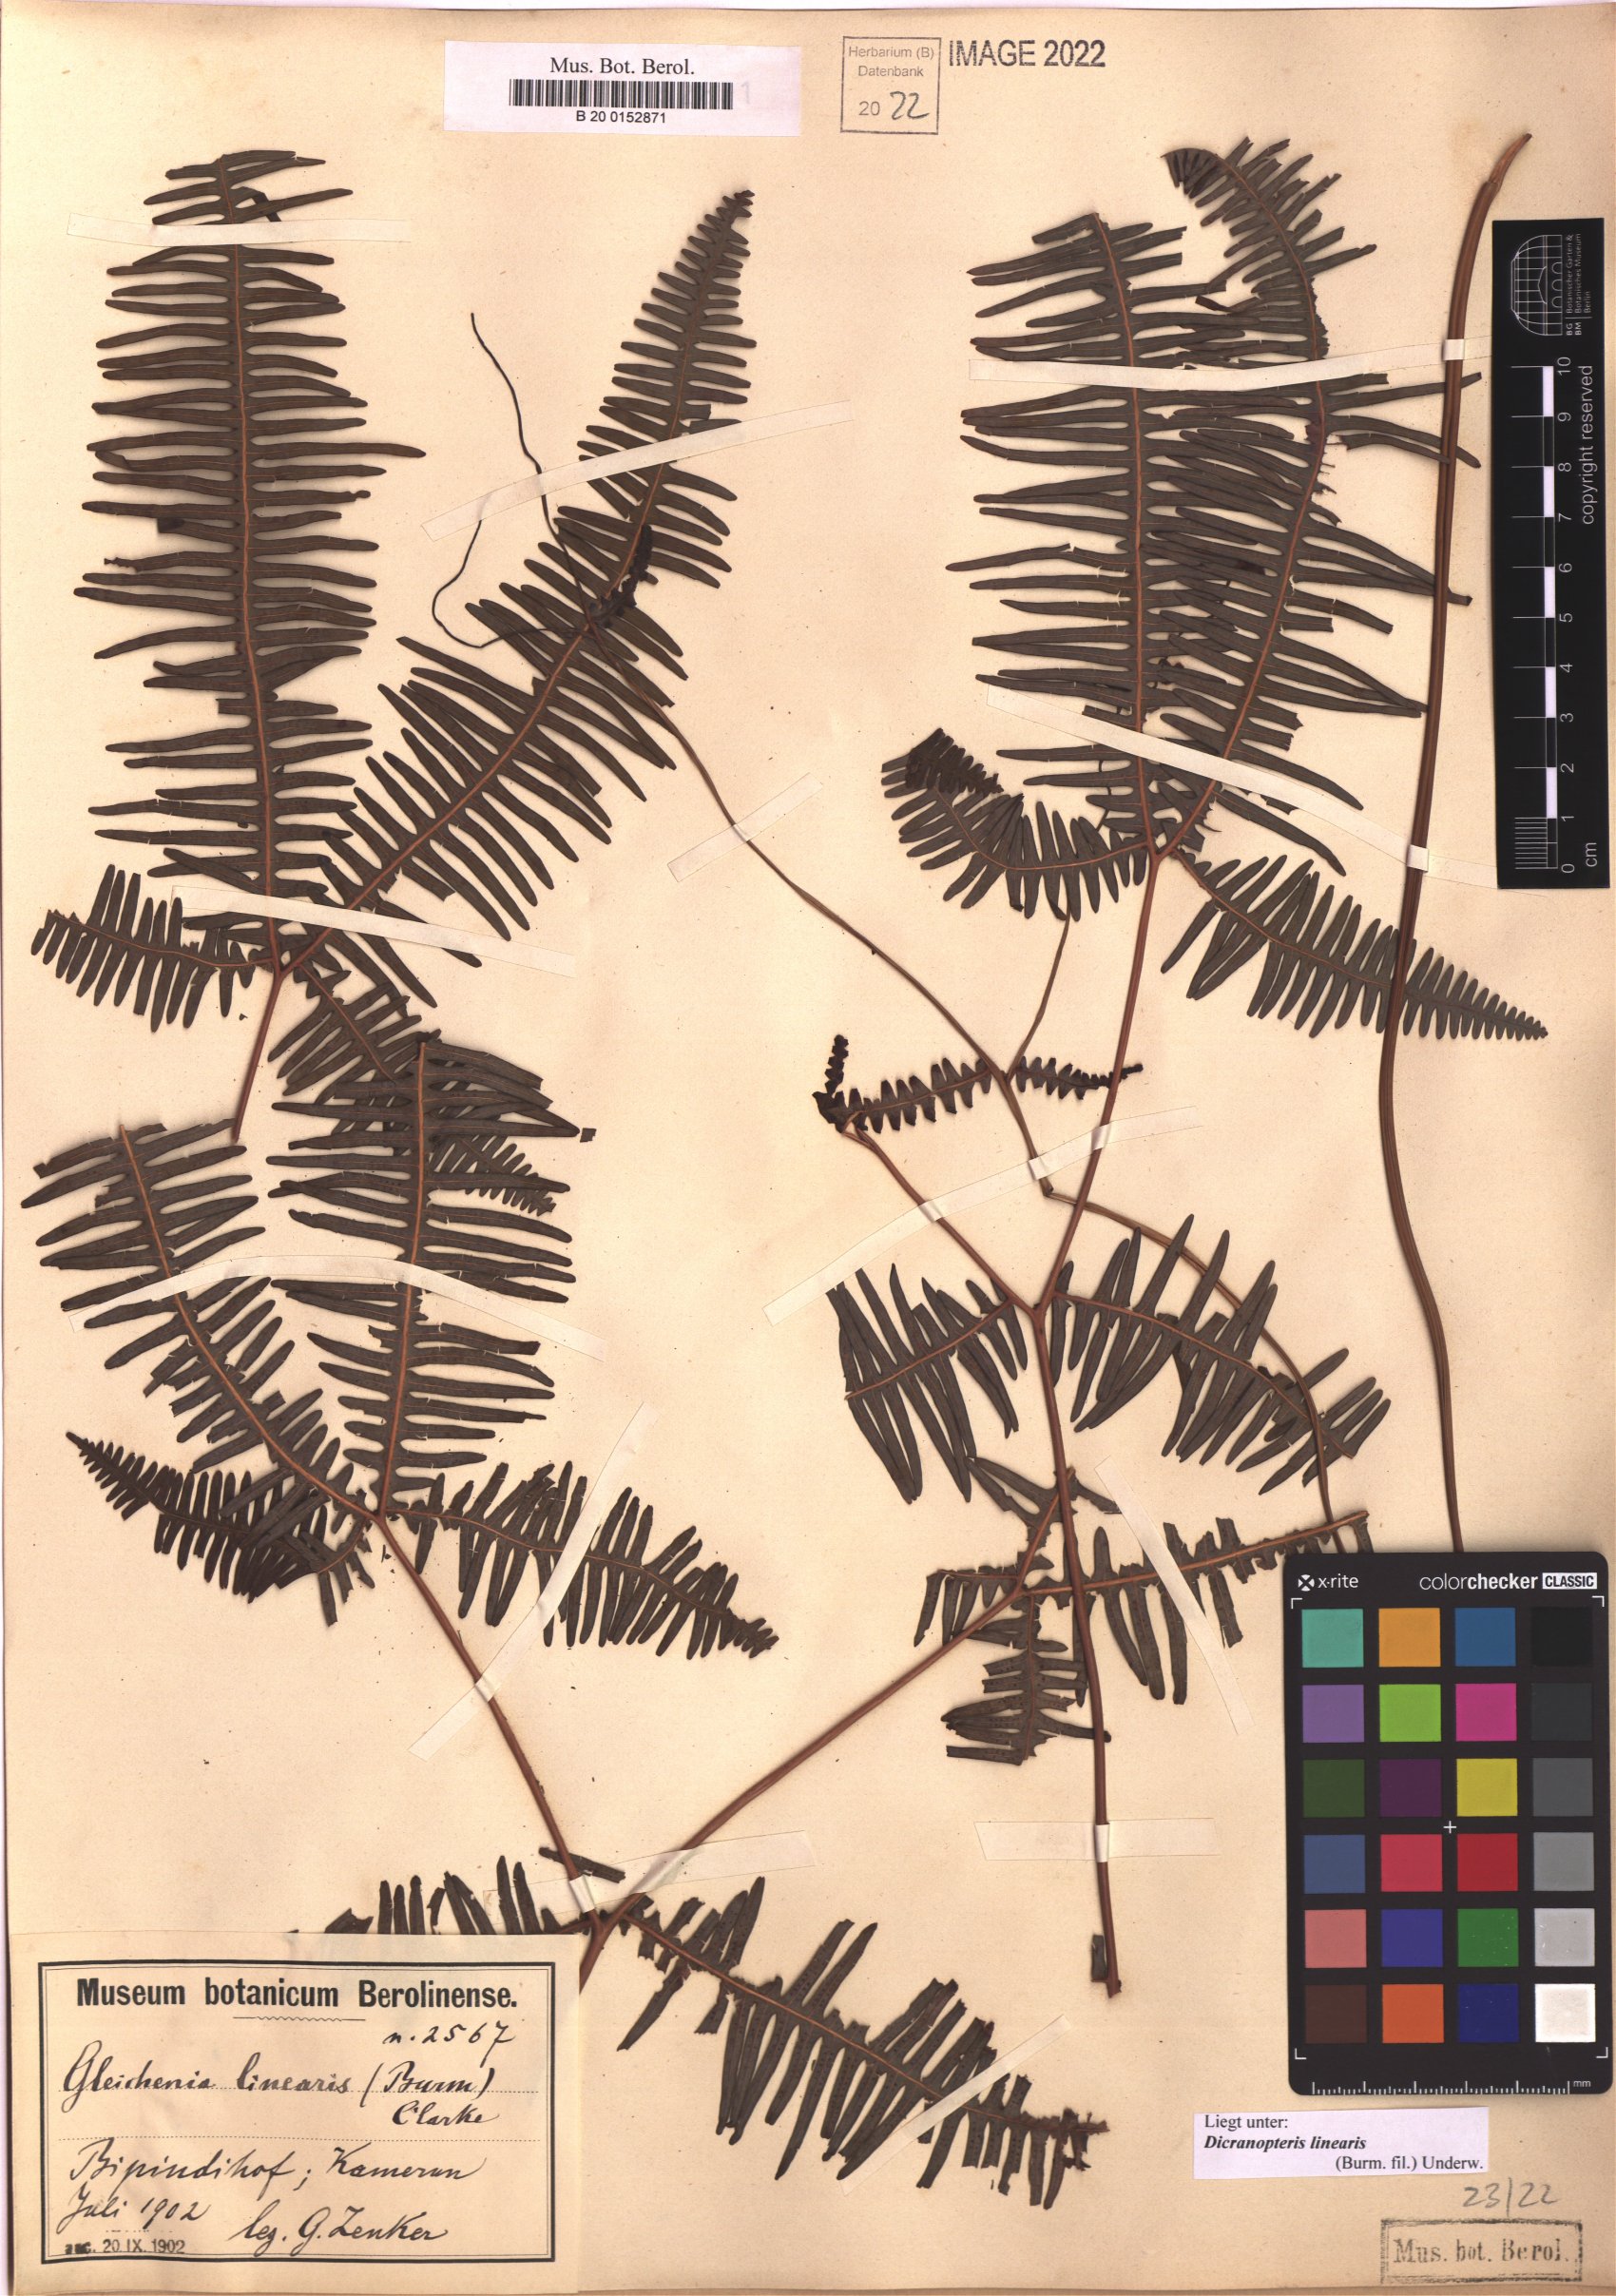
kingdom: Plantae
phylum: Tracheophyta
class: Polypodiopsida
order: Gleicheniales
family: Gleicheniaceae
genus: Dicranopteris
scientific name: Dicranopteris linearis
